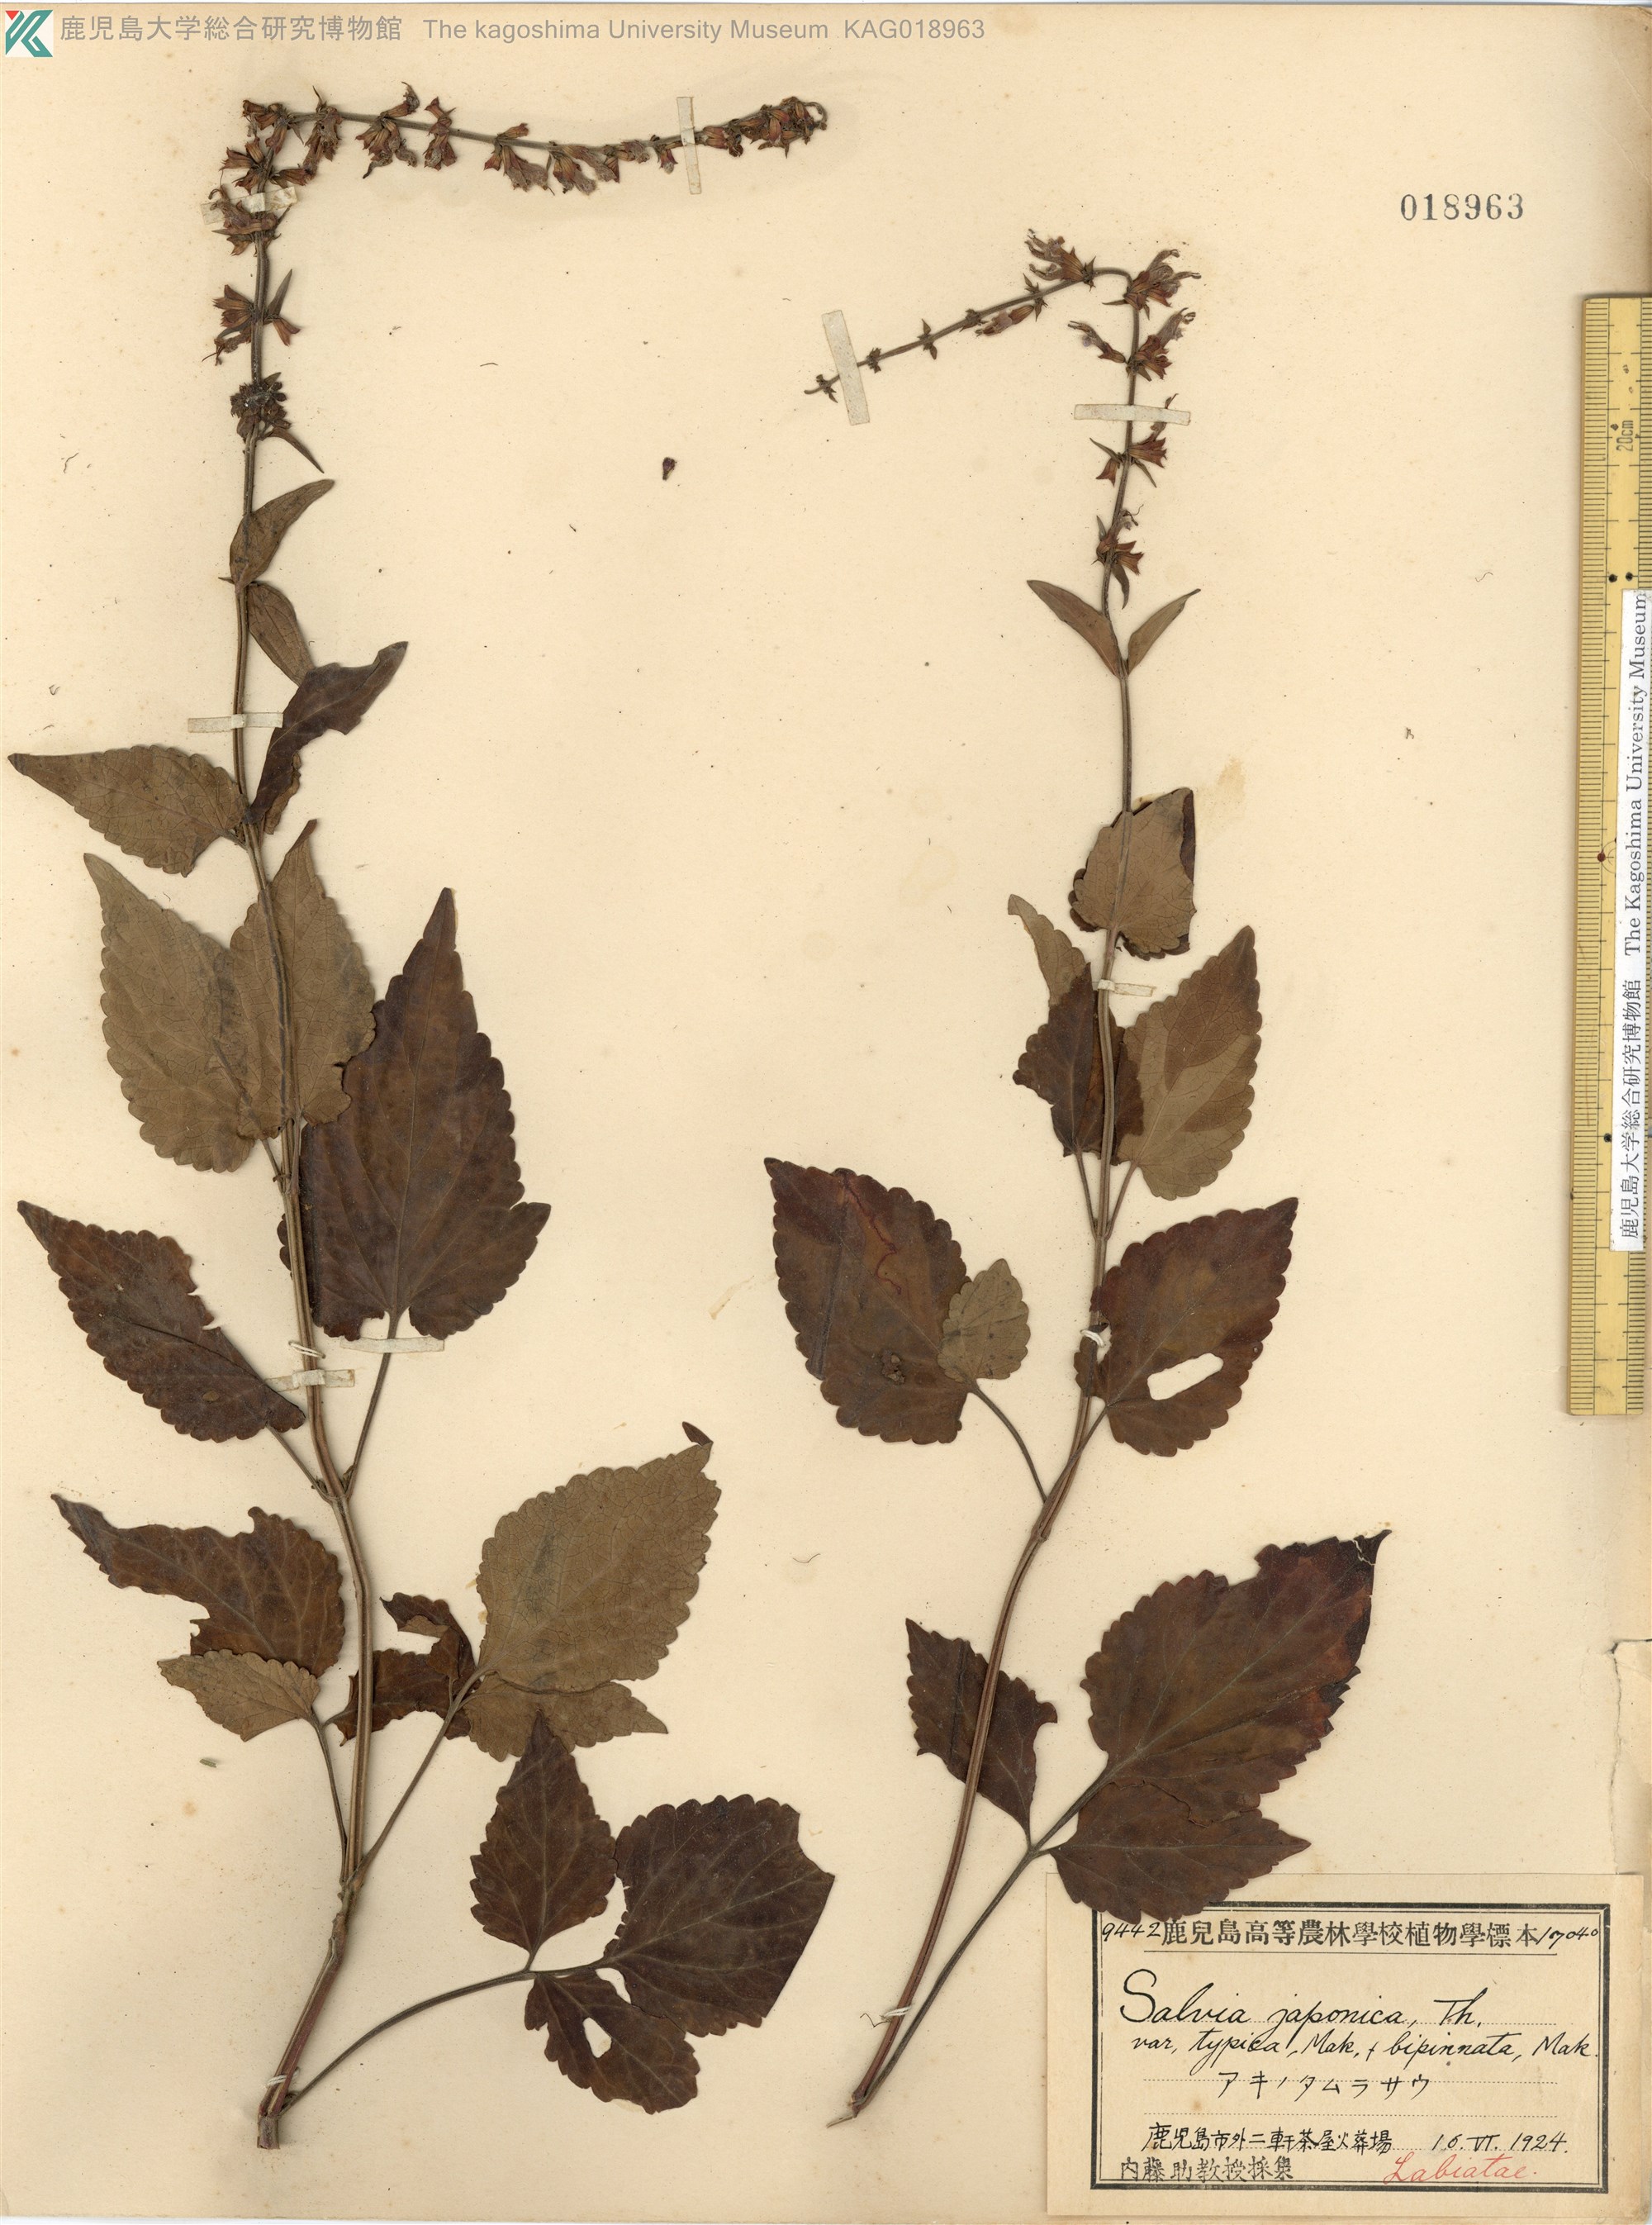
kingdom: Plantae
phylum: Tracheophyta
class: Magnoliopsida
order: Lamiales
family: Lamiaceae
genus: Salvia
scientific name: Salvia japonica
